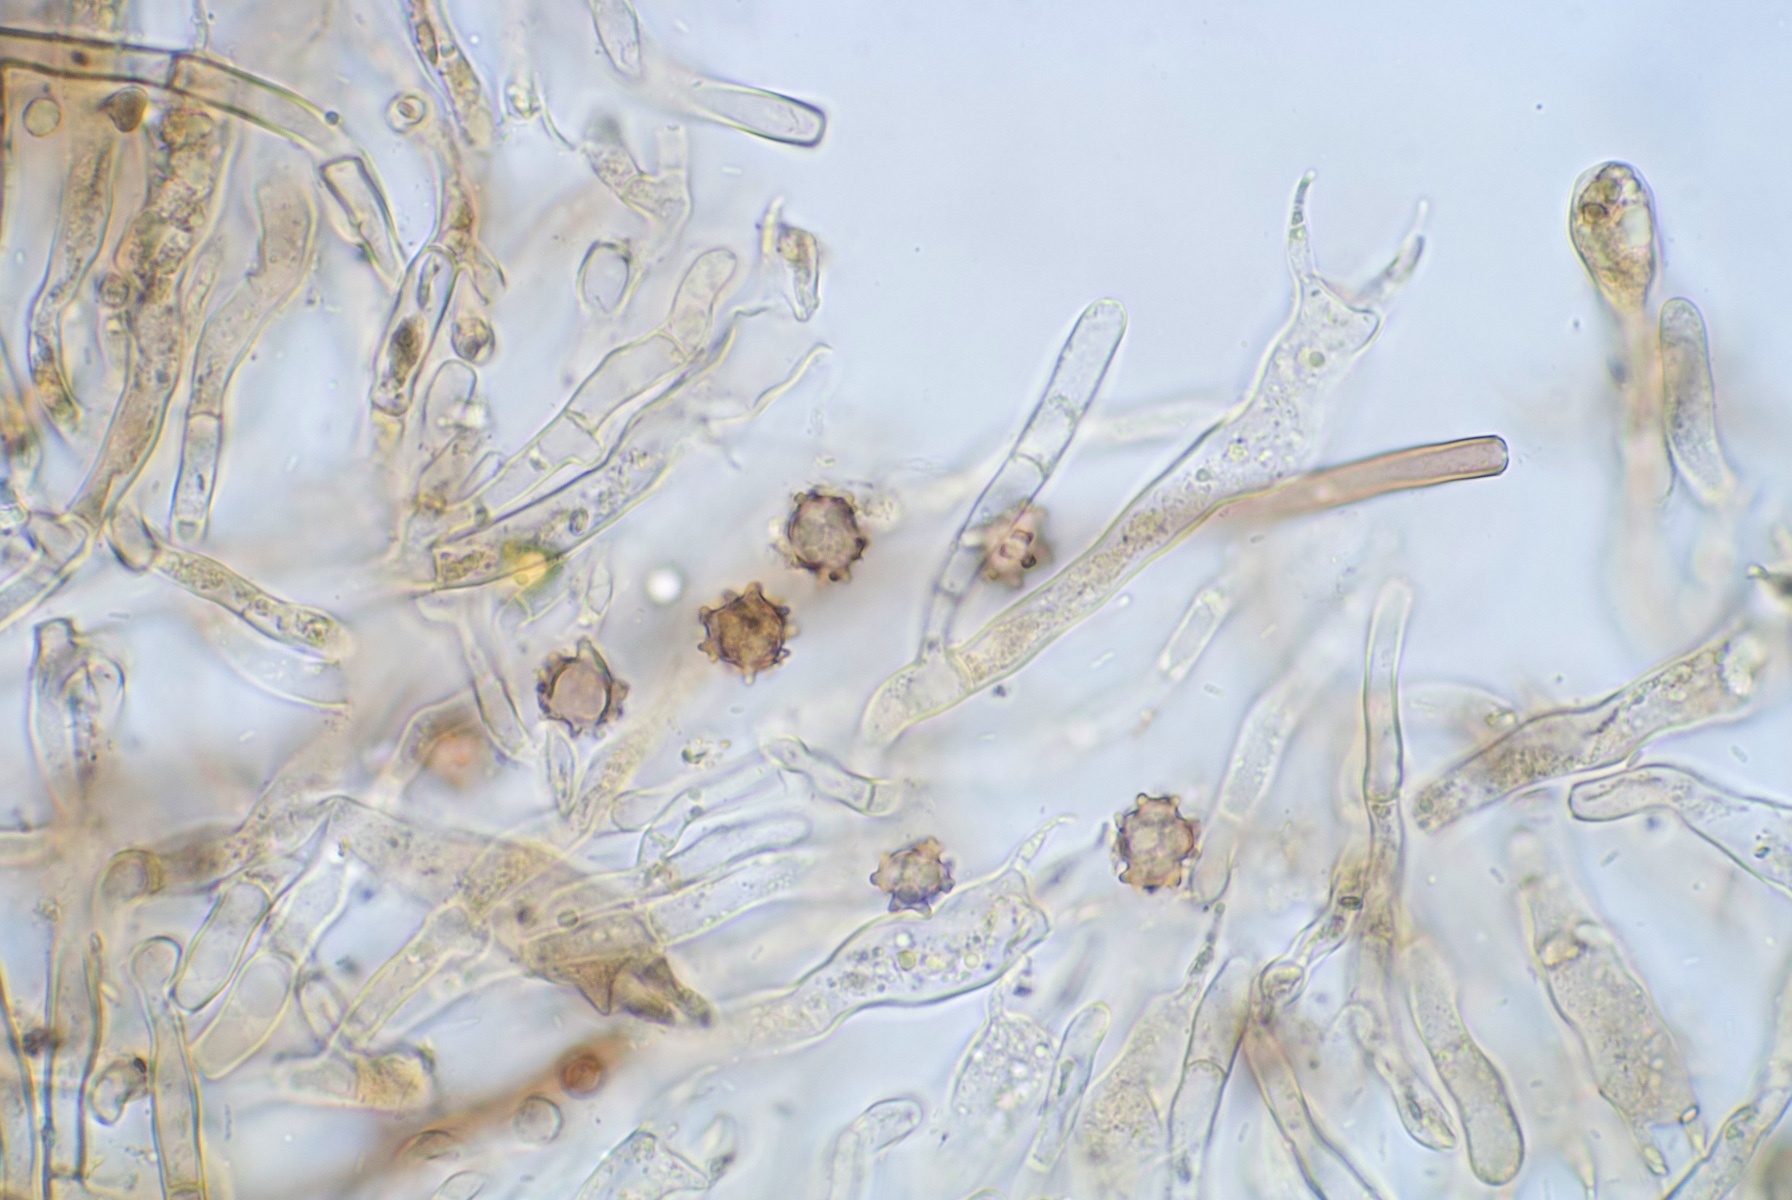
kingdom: Fungi
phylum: Basidiomycota
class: Agaricomycetes
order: Thelephorales
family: Thelephoraceae
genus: Polyozellus
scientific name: Polyozellus tristis
